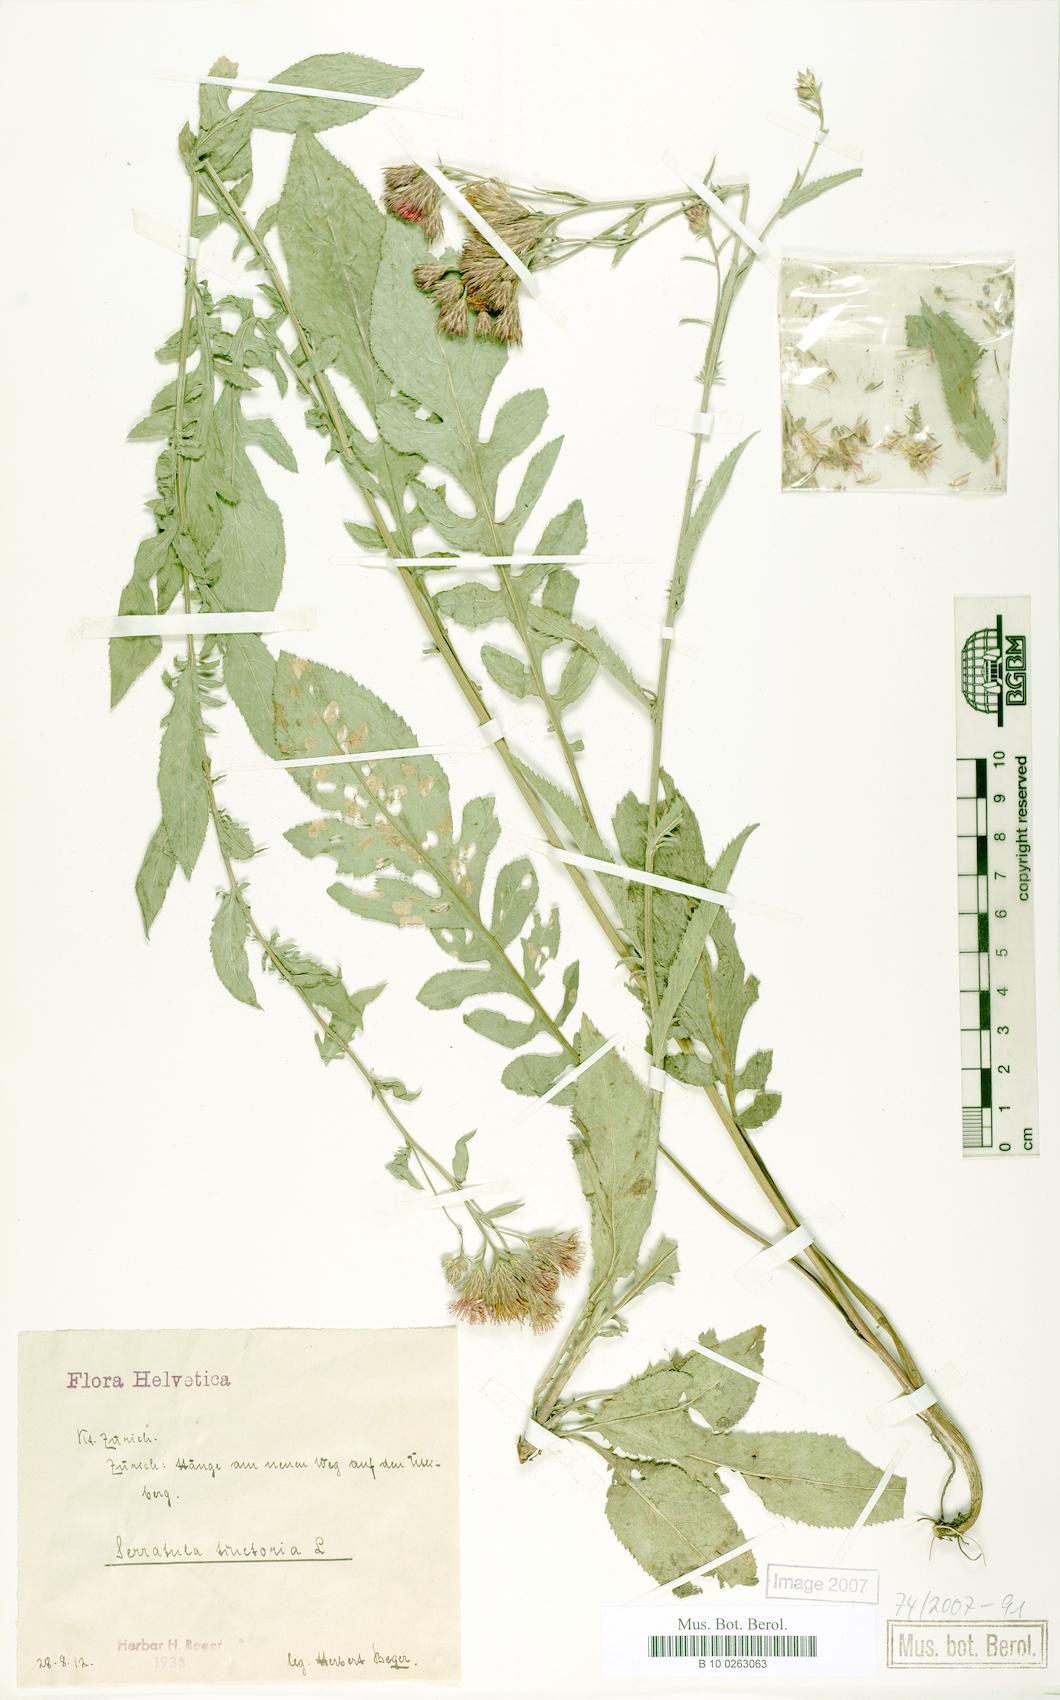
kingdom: Plantae
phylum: Tracheophyta
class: Magnoliopsida
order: Asterales
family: Asteraceae
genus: Serratula
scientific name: Serratula tinctoria
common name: Saw-wort
